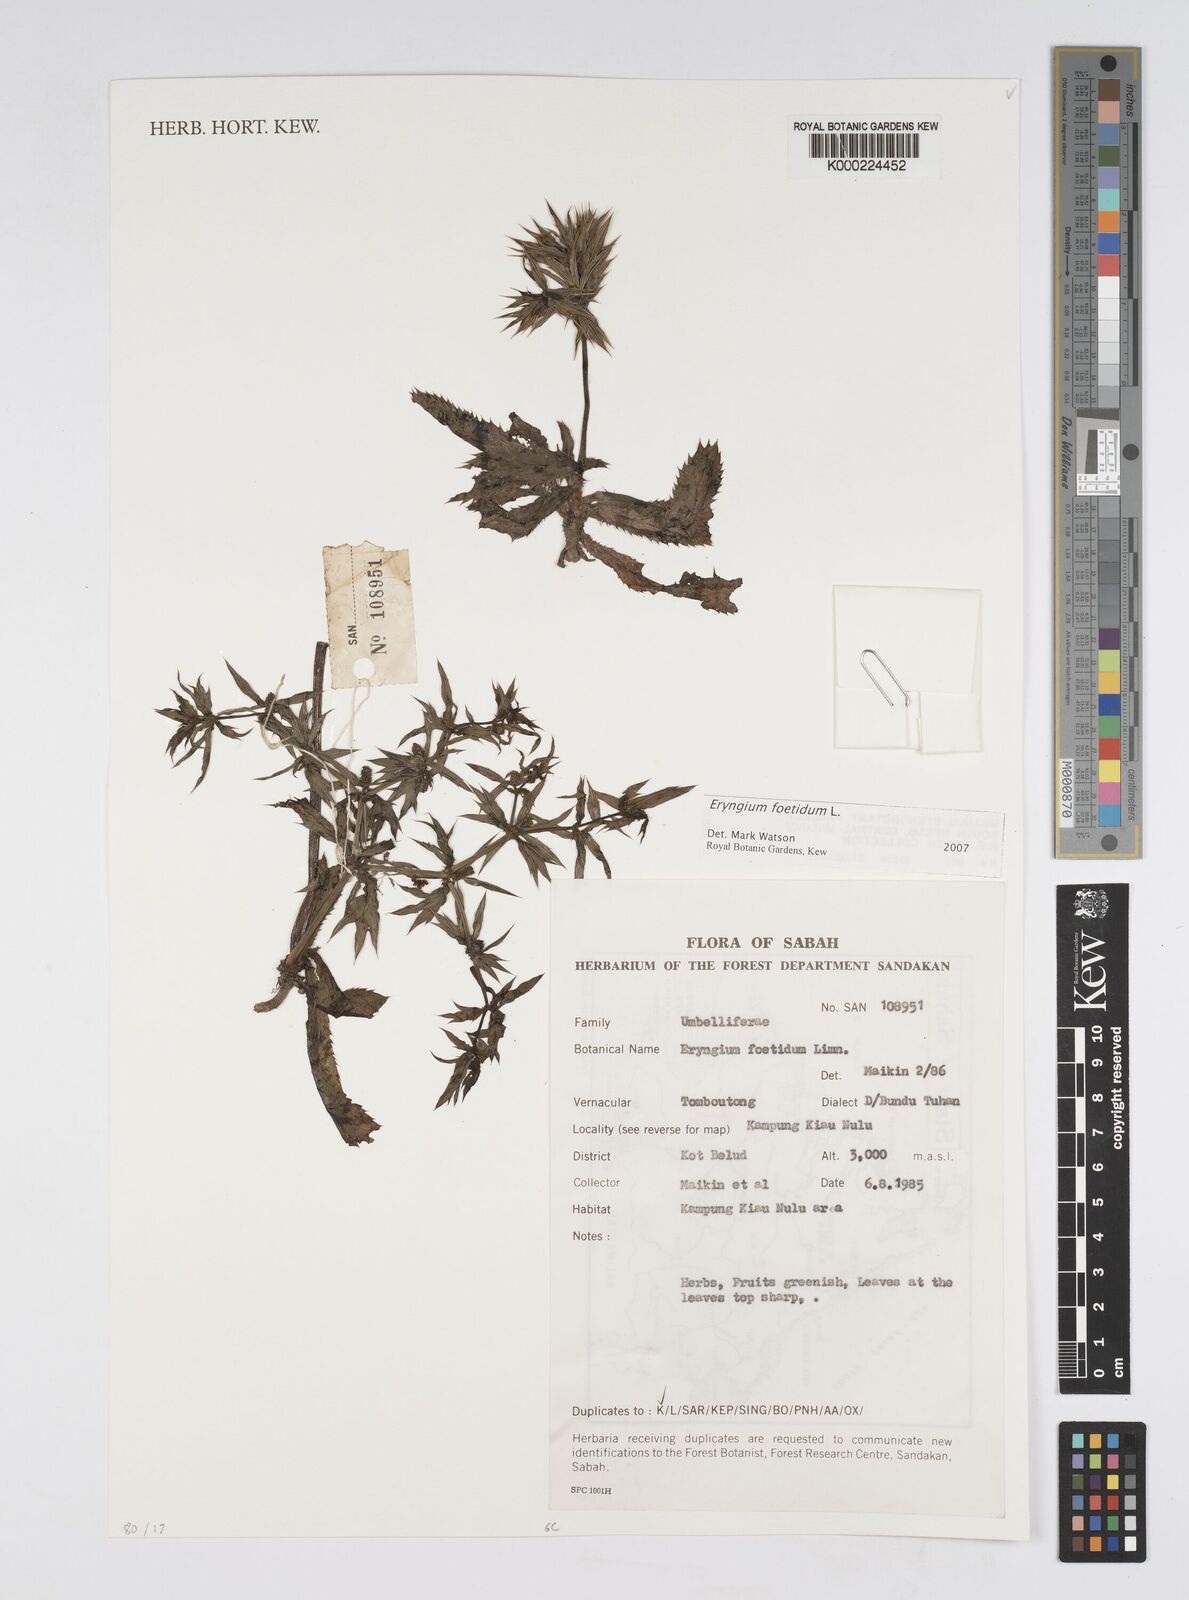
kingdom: Plantae
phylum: Tracheophyta
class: Magnoliopsida
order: Apiales
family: Apiaceae
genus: Eryngium
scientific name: Eryngium foetidum
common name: Fitweed
